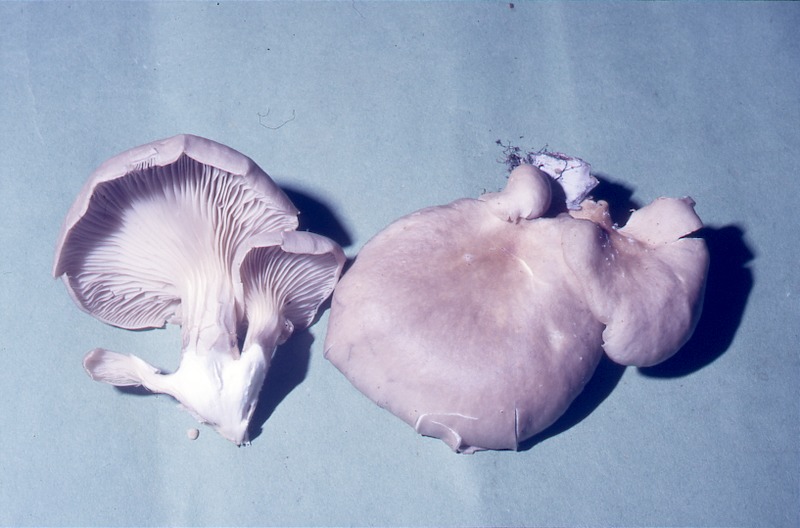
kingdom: Fungi
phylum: Basidiomycota
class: Agaricomycetes
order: Agaricales
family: Pleurotaceae
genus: Pleurotus
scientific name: Pleurotus cornucopiae
